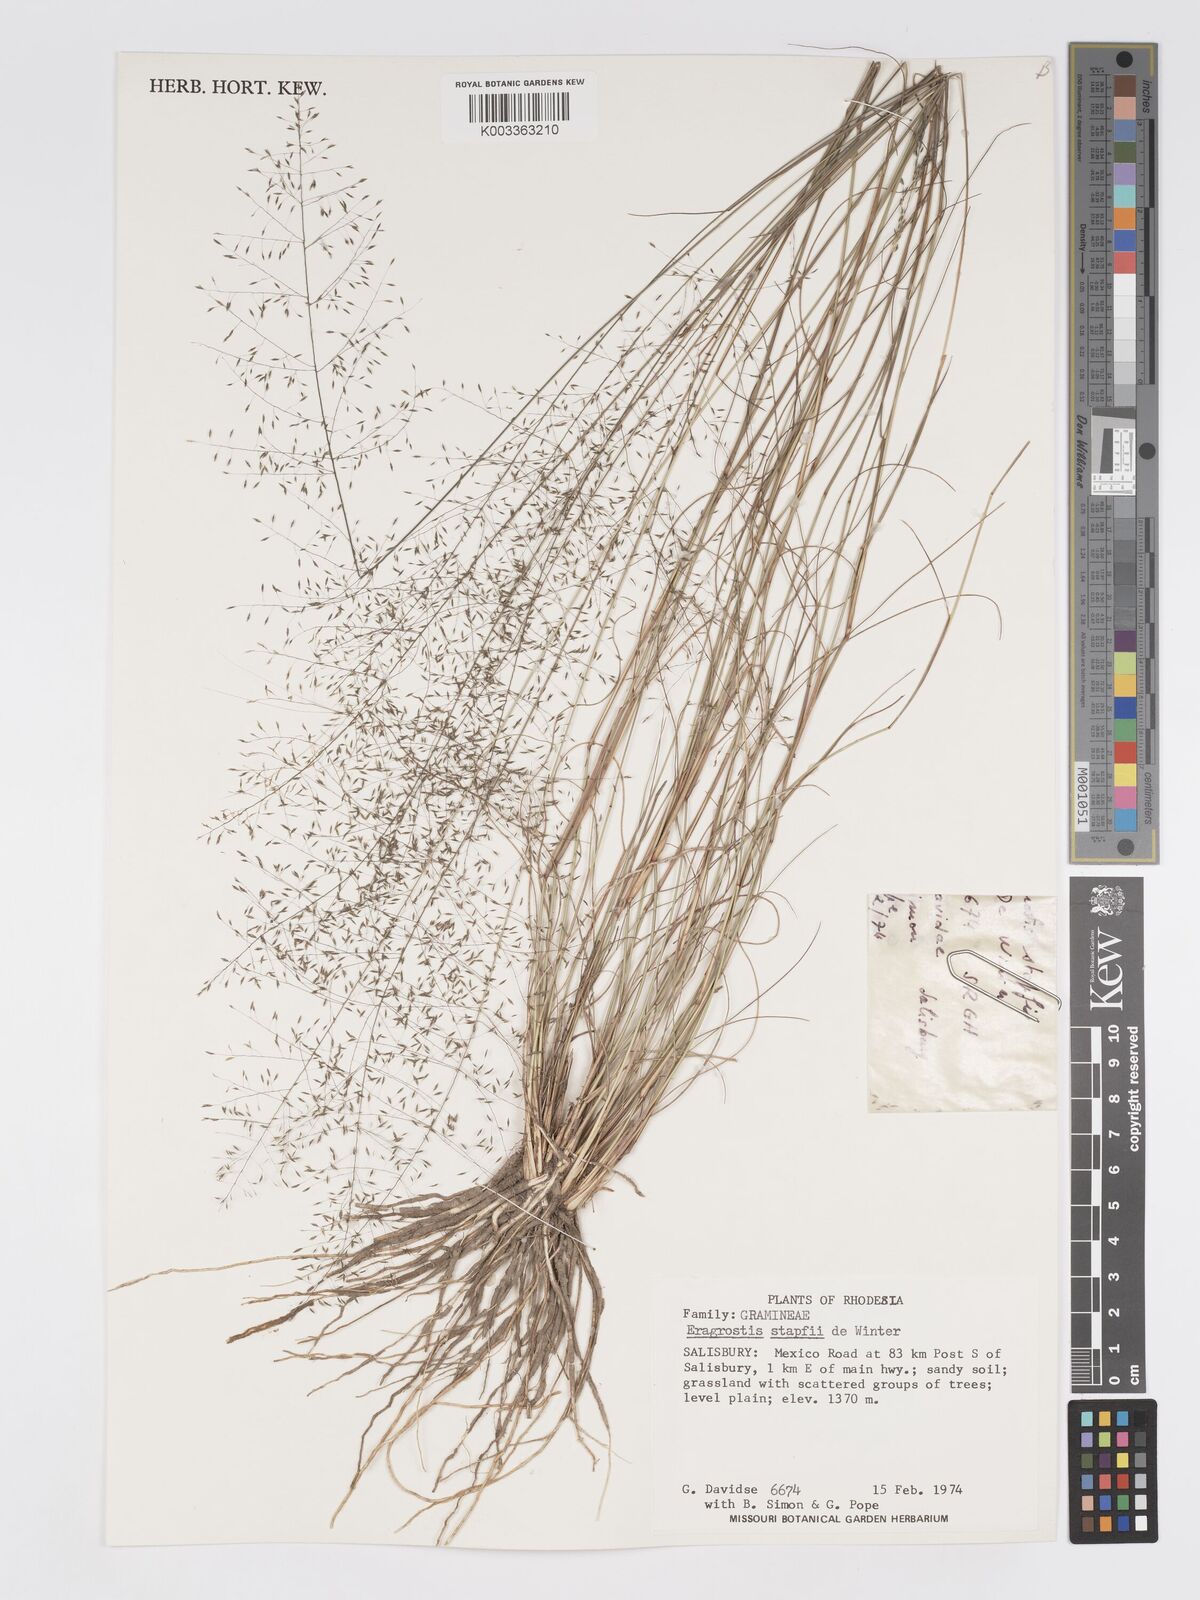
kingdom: Plantae
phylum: Tracheophyta
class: Liliopsida
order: Poales
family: Poaceae
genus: Eragrostis
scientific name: Eragrostis stapfii
